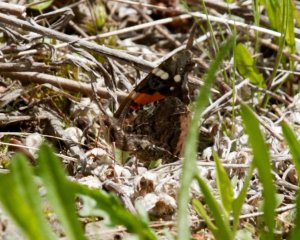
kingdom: Animalia
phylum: Arthropoda
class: Insecta
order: Lepidoptera
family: Nymphalidae
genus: Vanessa
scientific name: Vanessa atalanta
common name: Red Admiral
